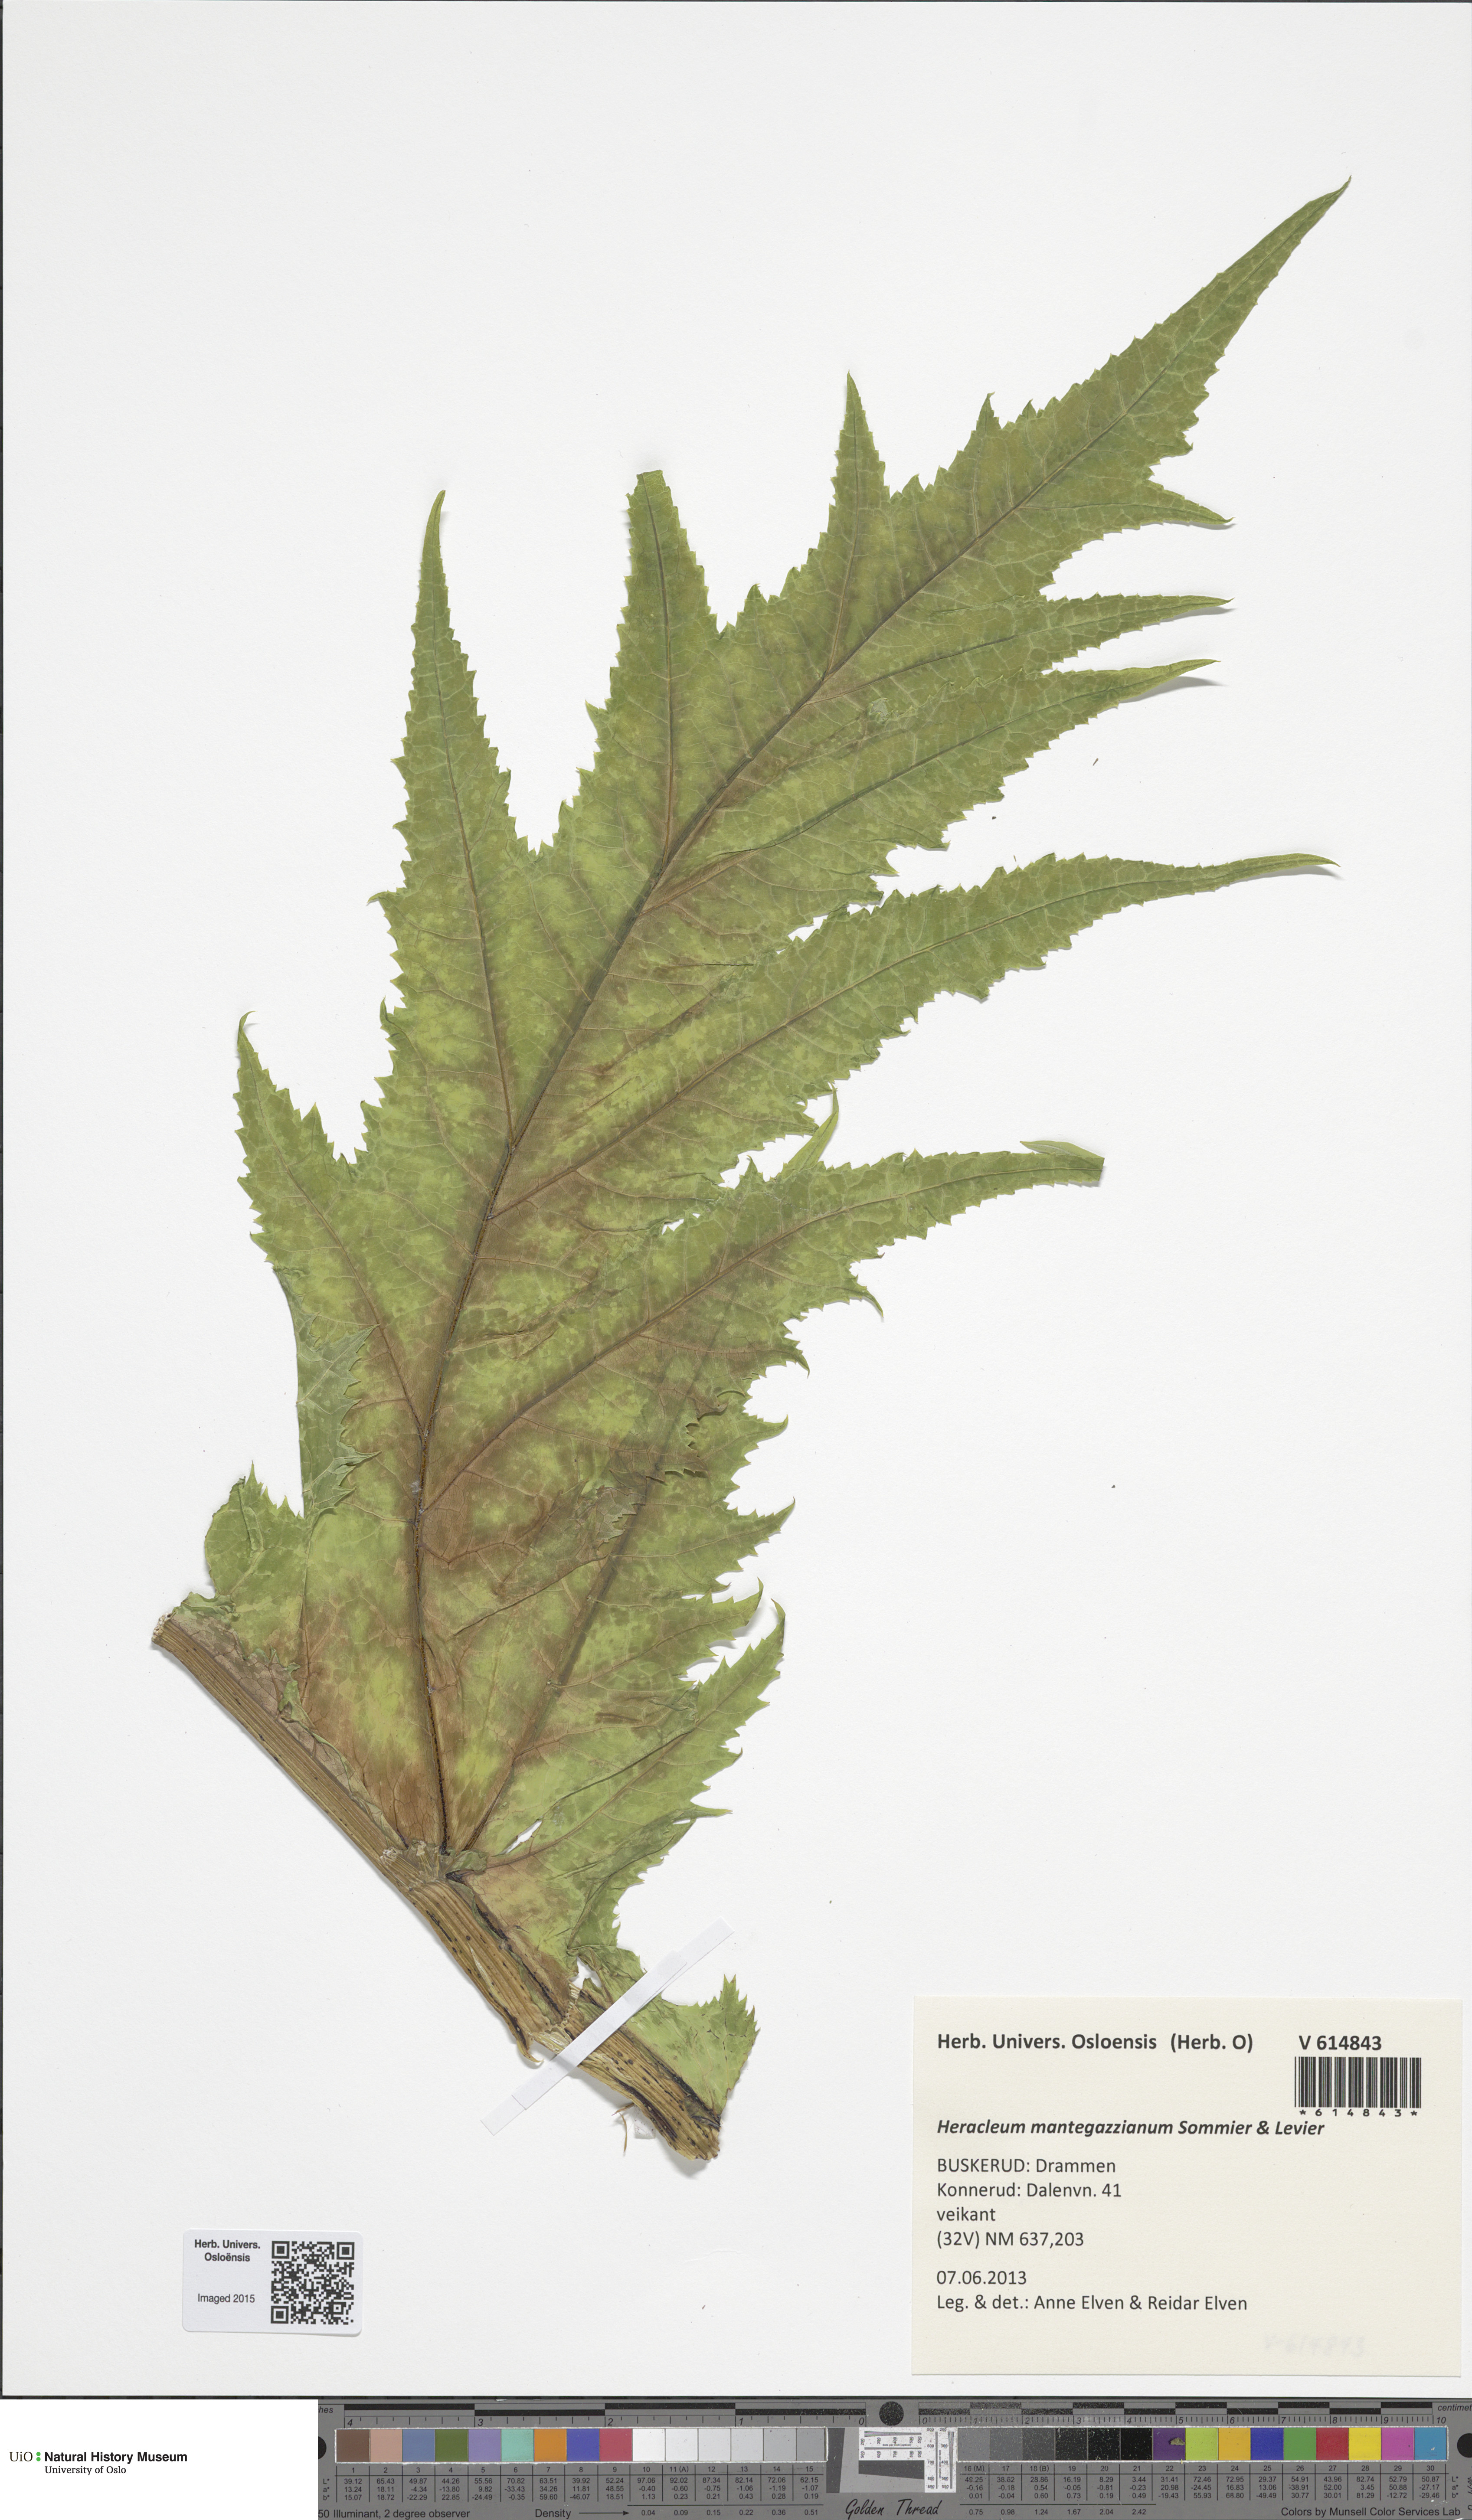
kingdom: Plantae
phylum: Tracheophyta
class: Magnoliopsida
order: Apiales
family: Apiaceae
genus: Heracleum
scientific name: Heracleum mantegazzianum
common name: Giant hogweed
